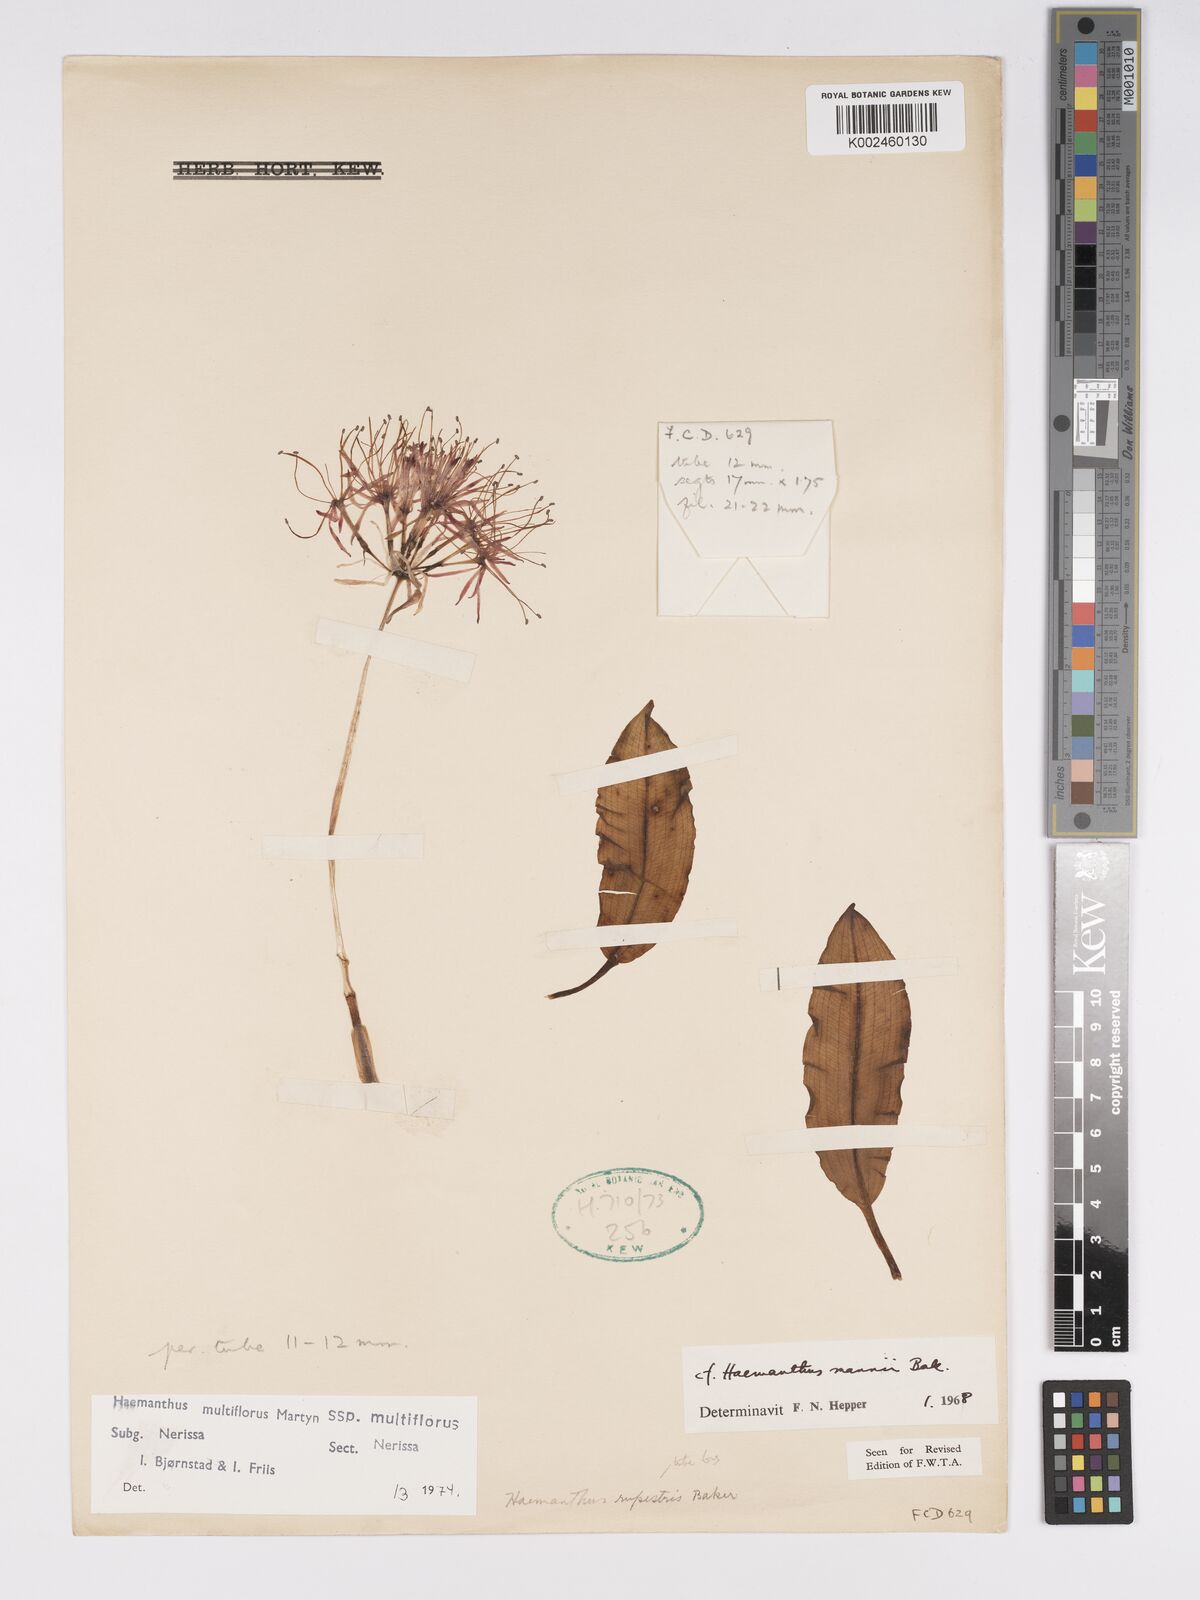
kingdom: Plantae
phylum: Tracheophyta
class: Liliopsida
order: Asparagales
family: Amaryllidaceae
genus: Scadoxus
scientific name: Scadoxus multiflorus
